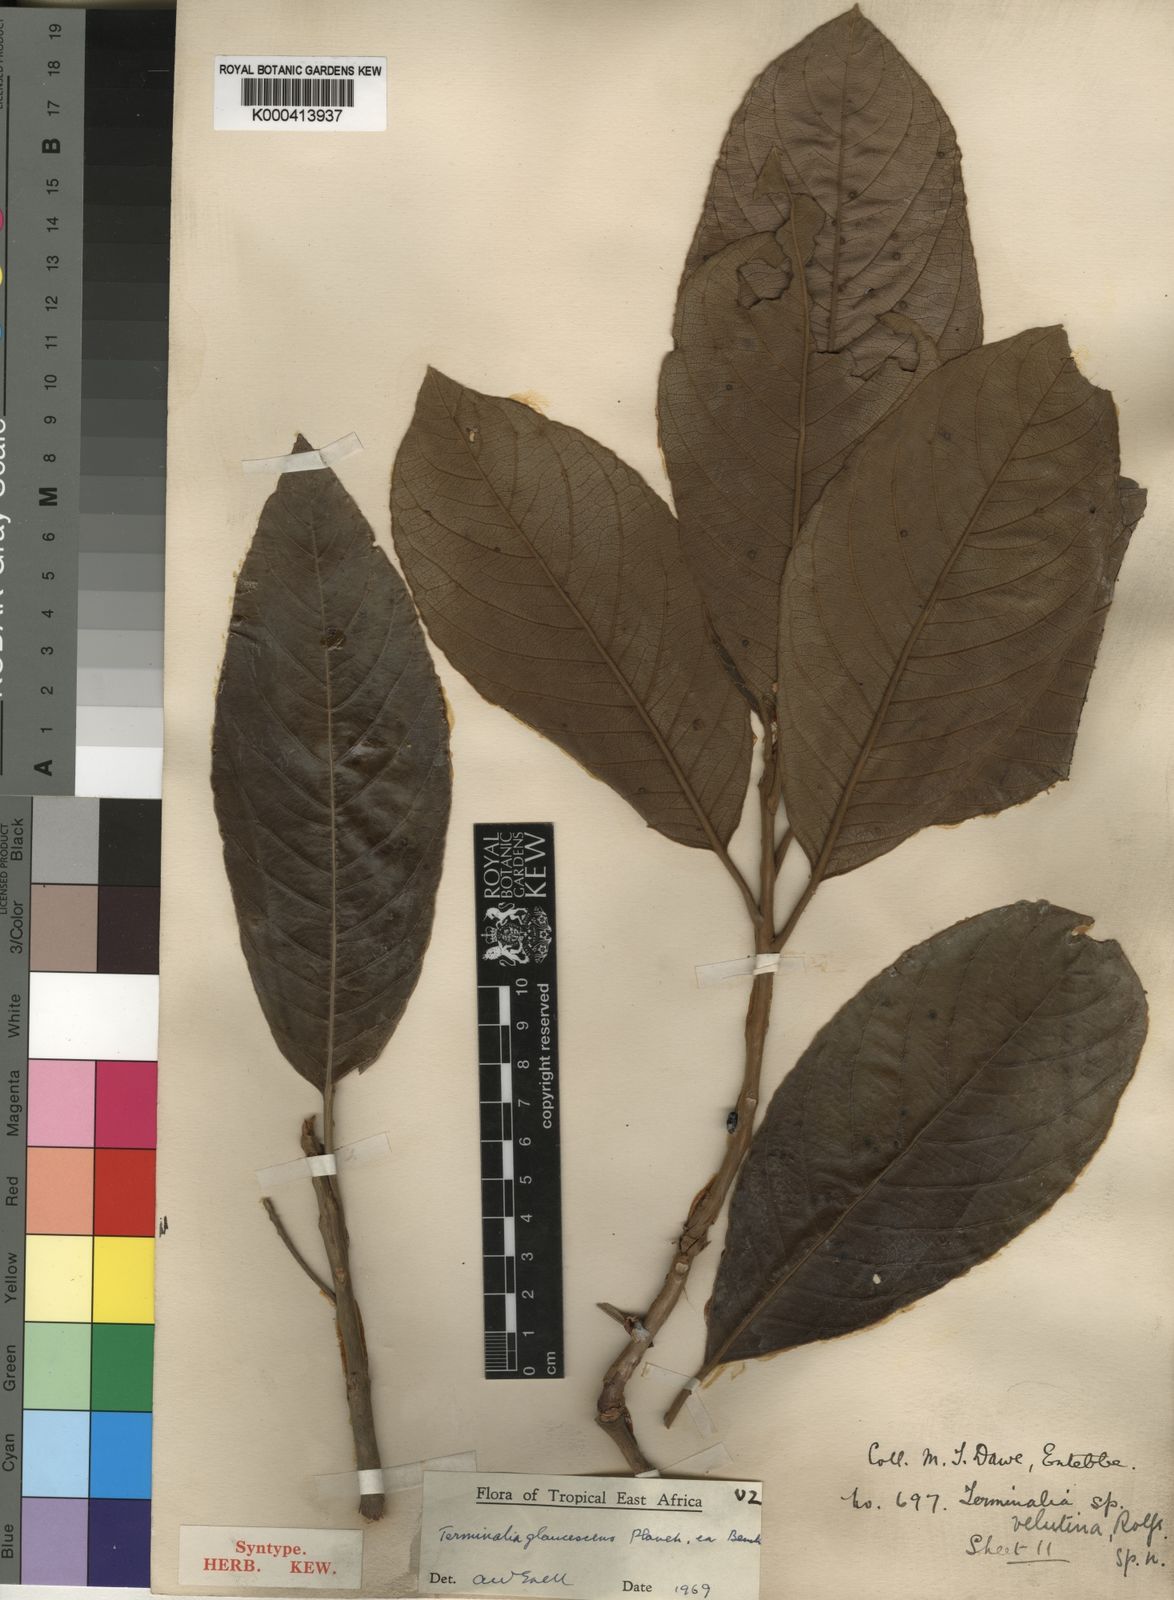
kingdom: Plantae
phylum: Tracheophyta
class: Magnoliopsida
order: Myrtales
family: Combretaceae
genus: Terminalia
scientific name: Terminalia schimperiana
